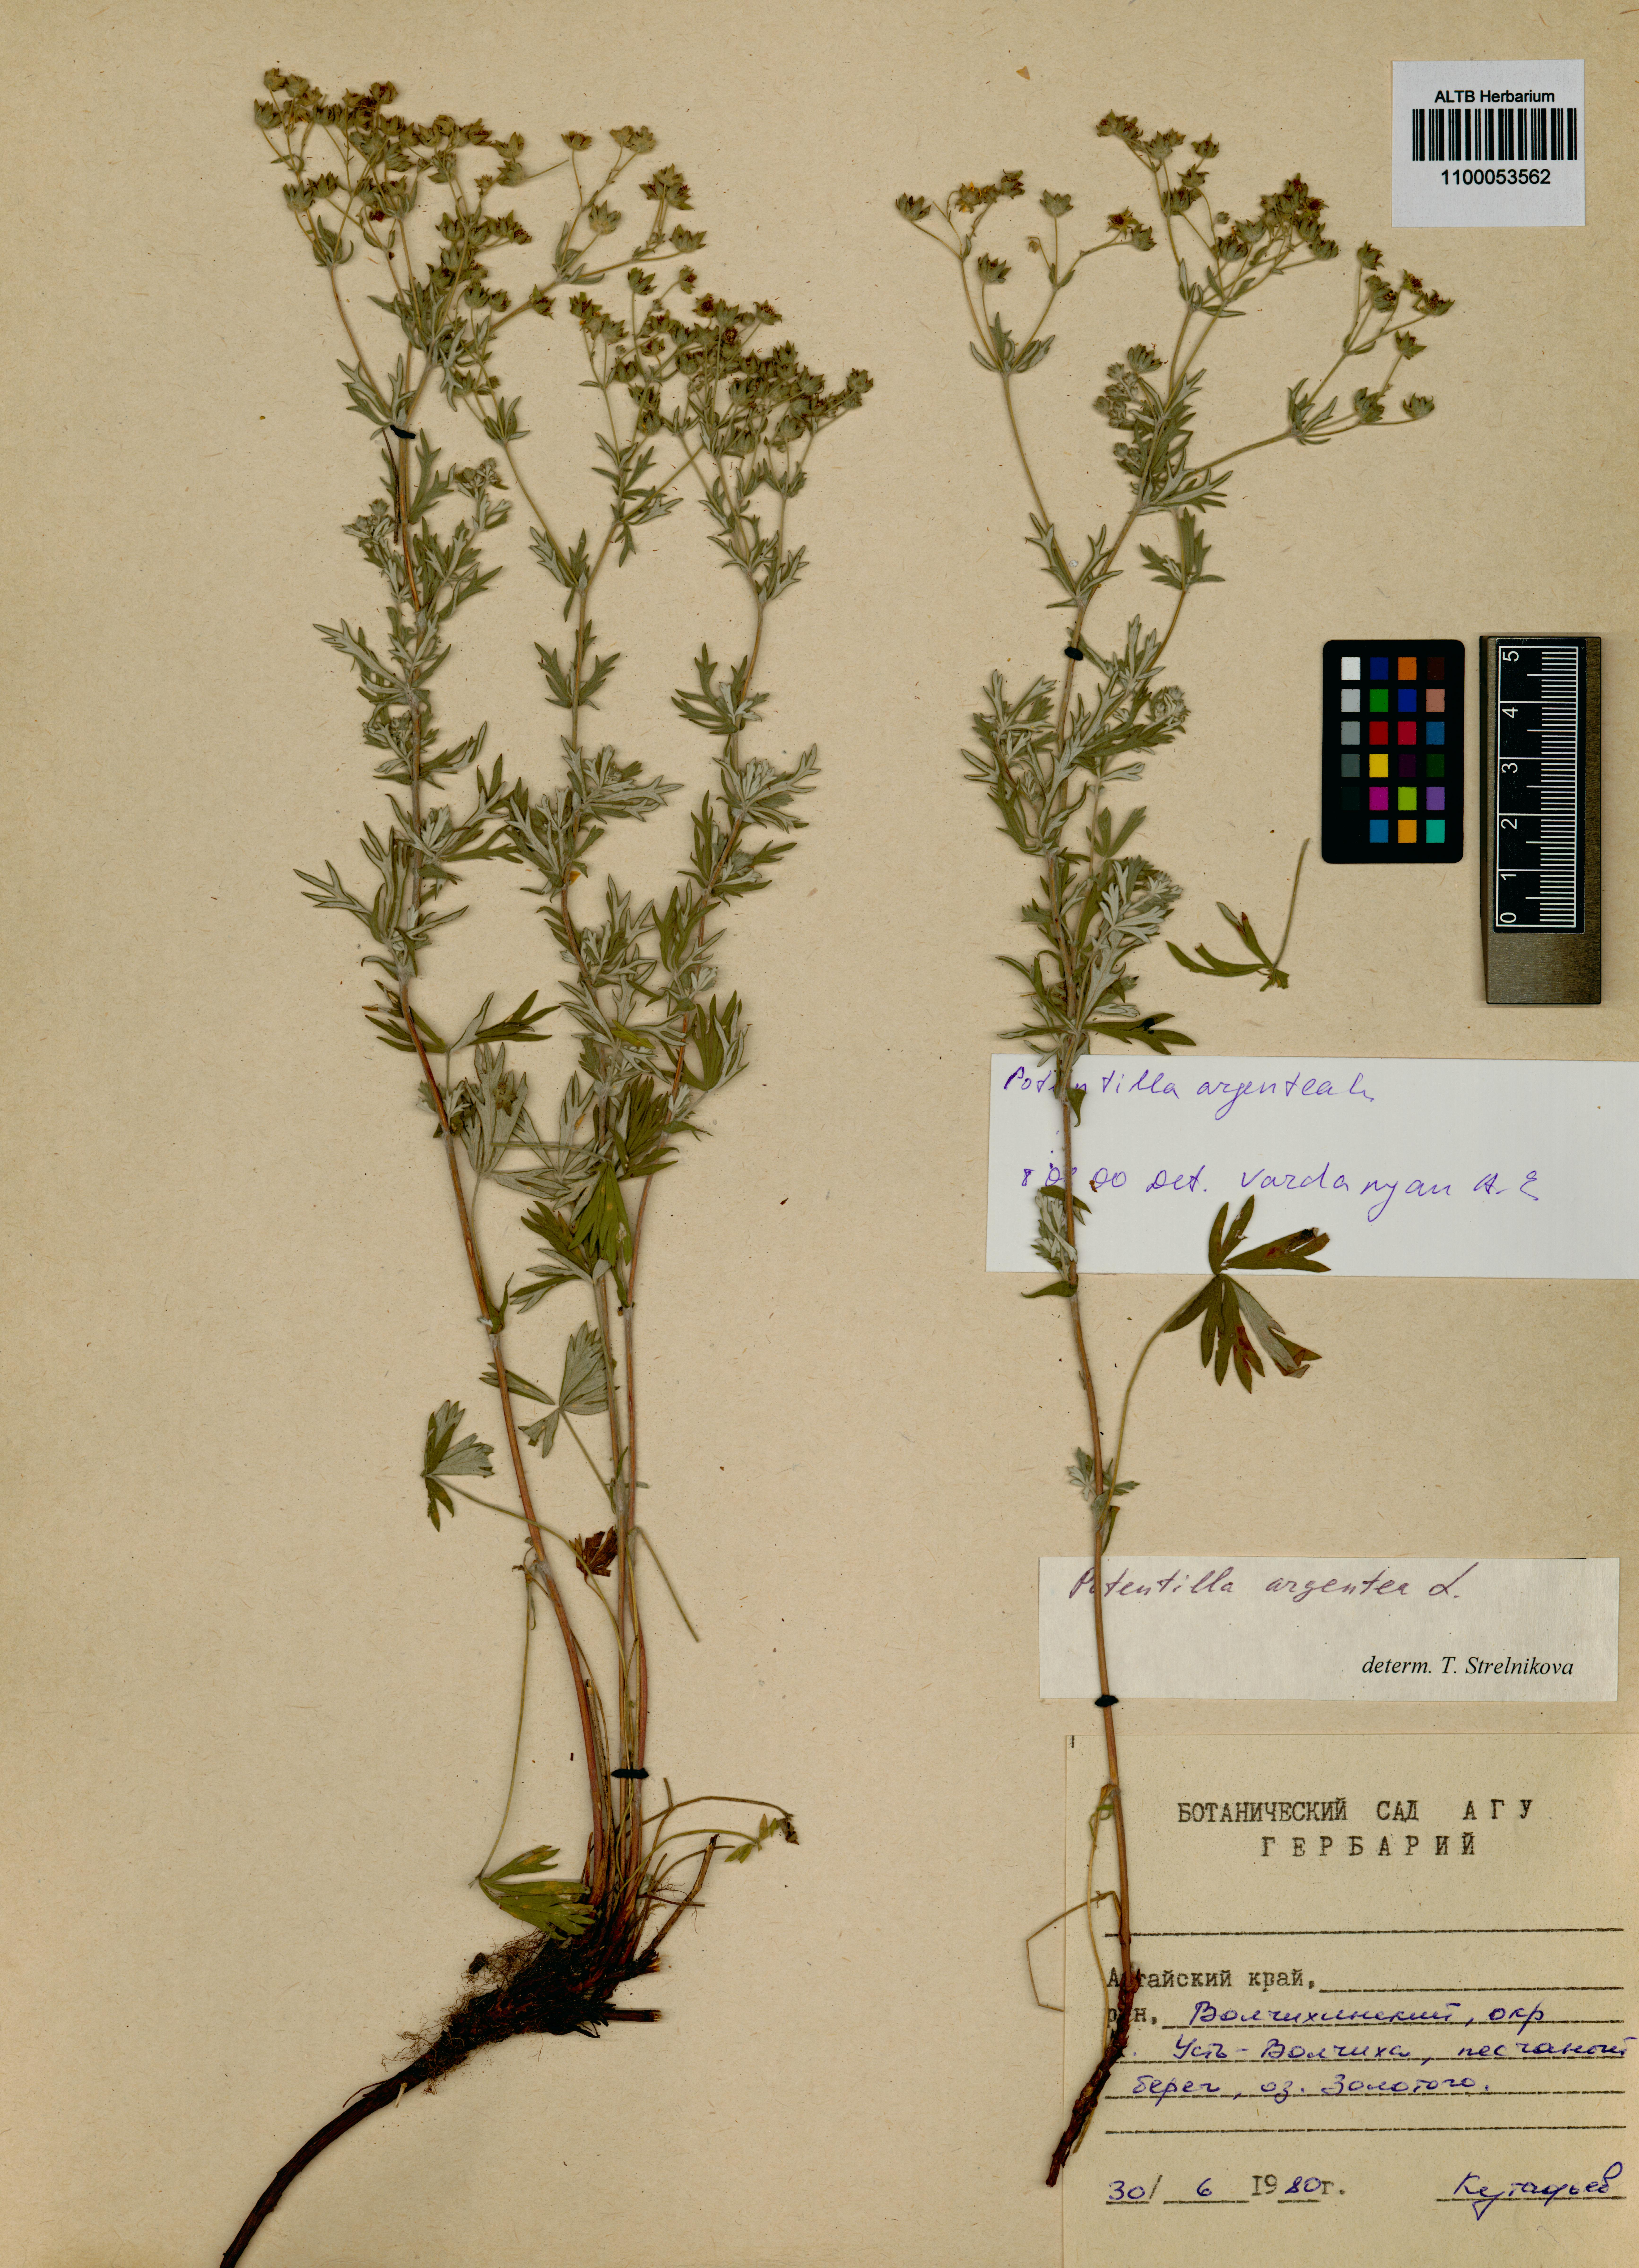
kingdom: Plantae
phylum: Tracheophyta
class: Magnoliopsida
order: Rosales
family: Rosaceae
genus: Potentilla
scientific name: Potentilla argentea
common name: Hoary cinquefoil
